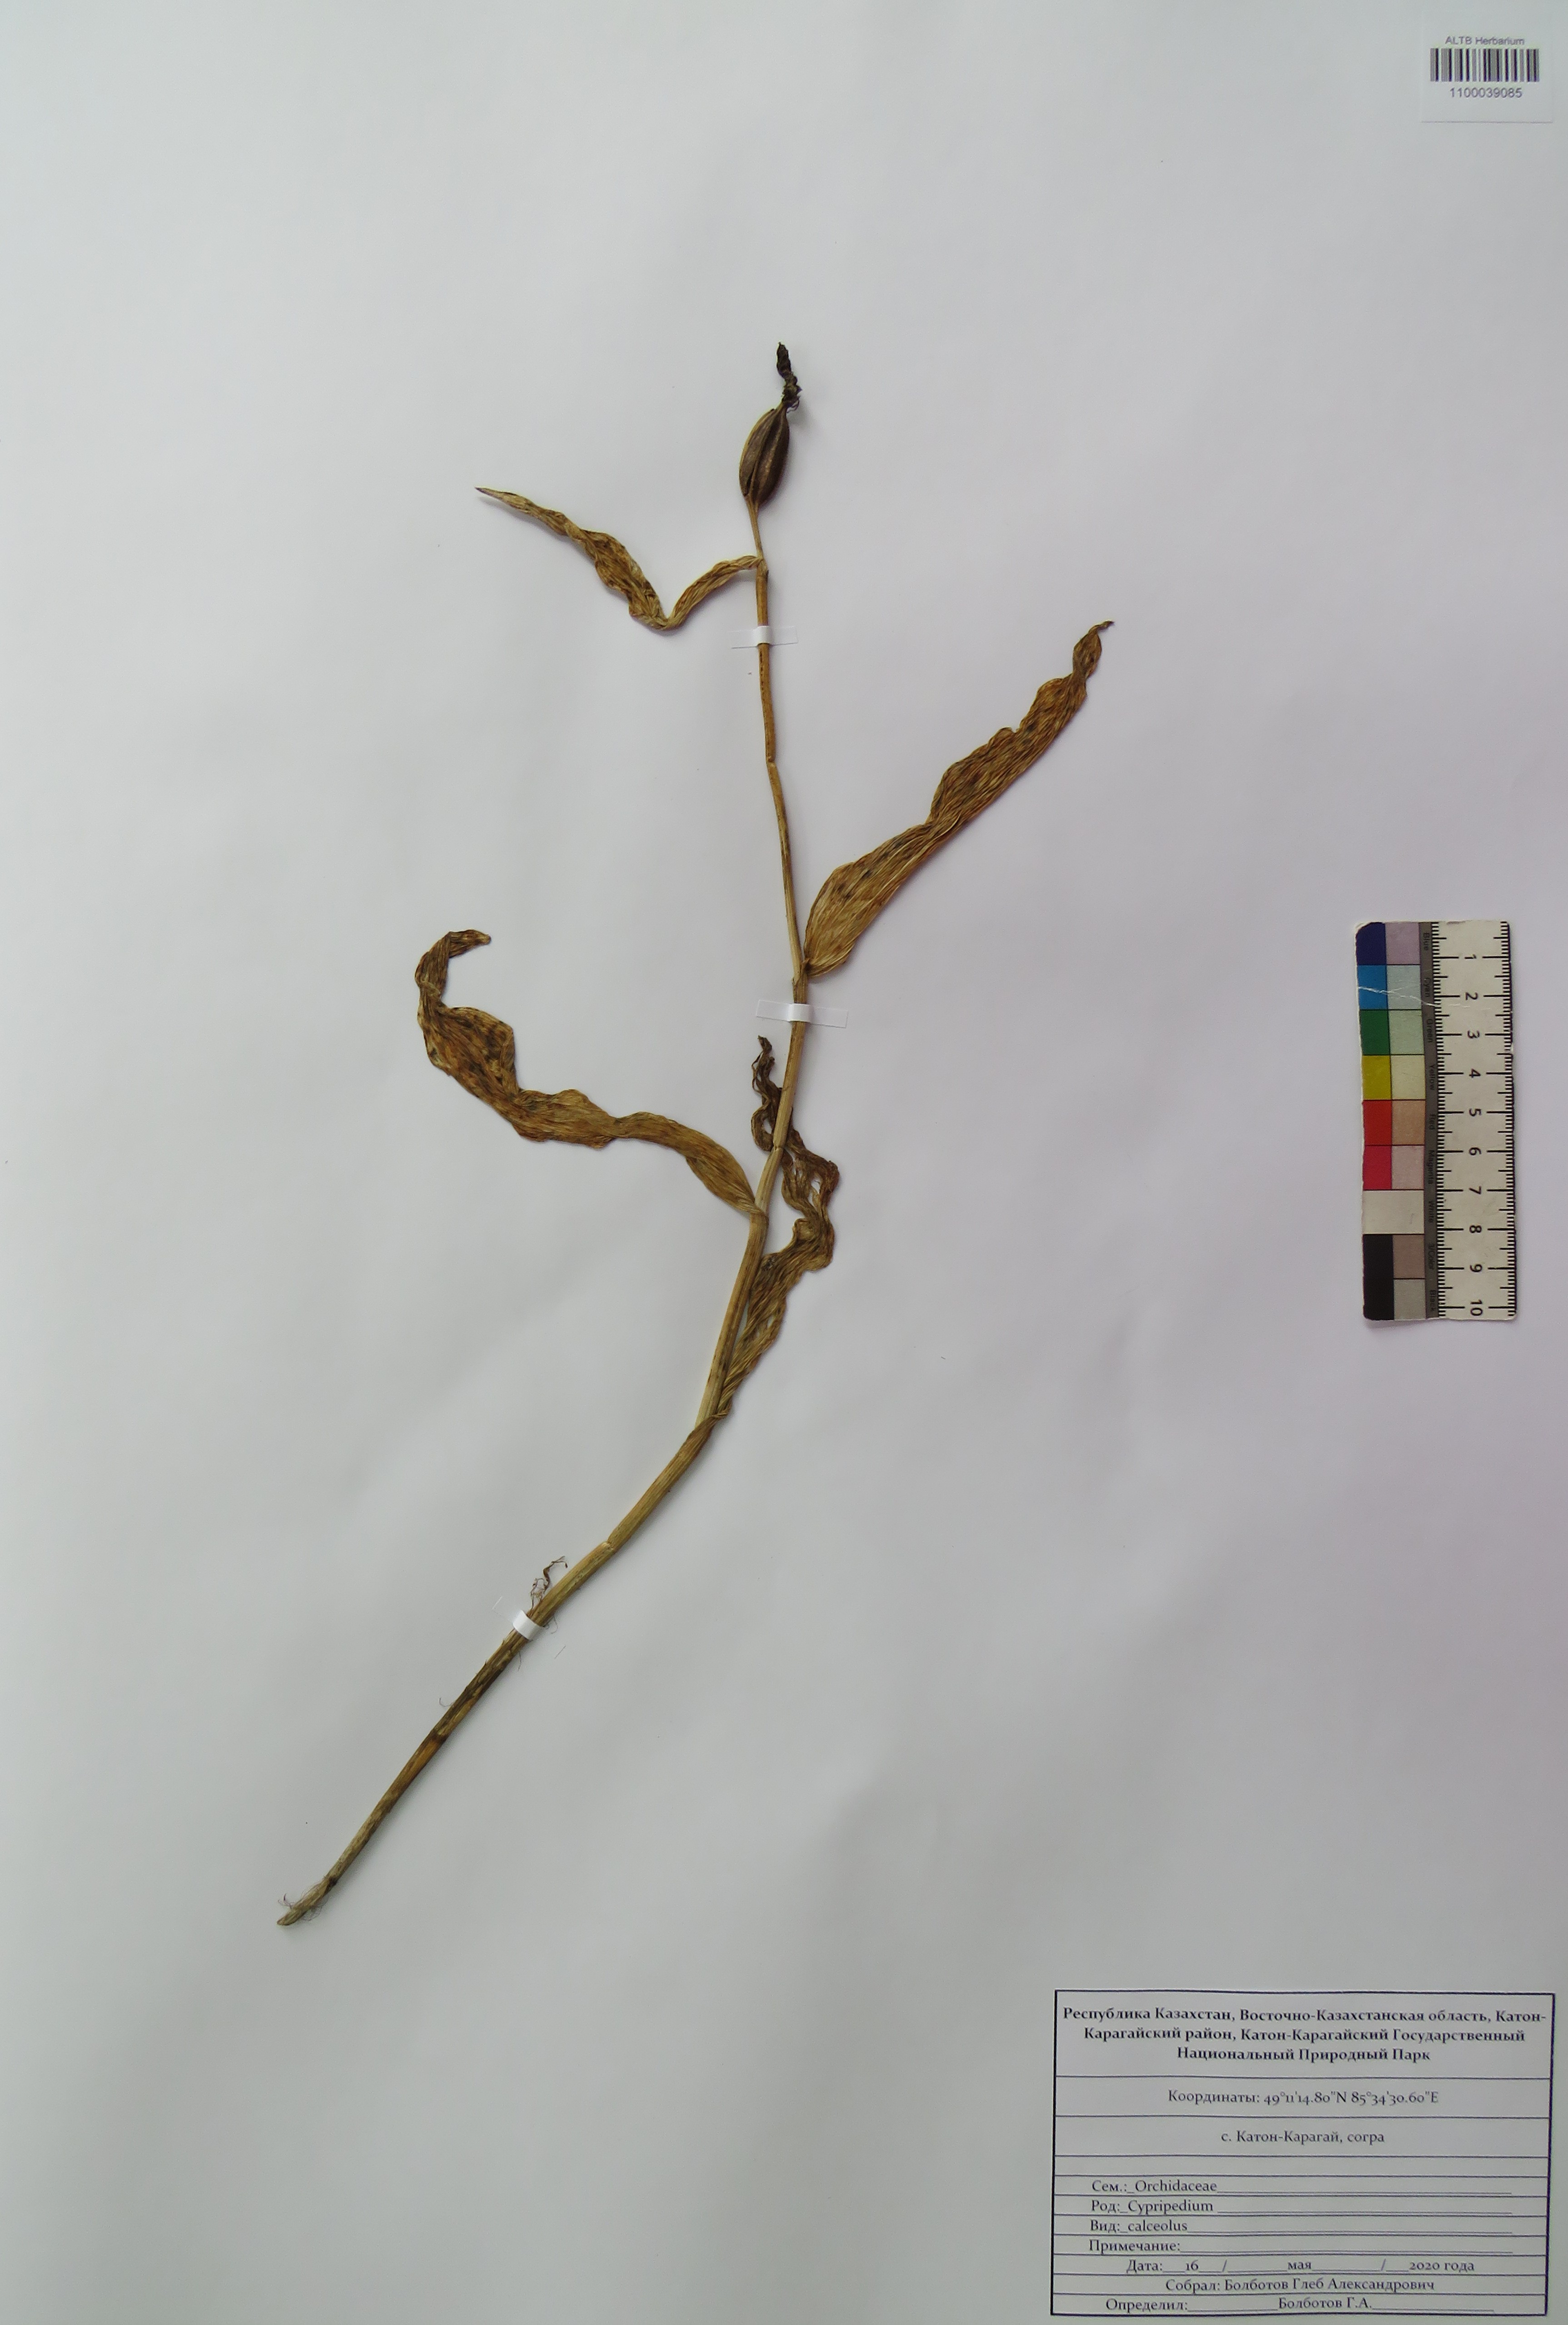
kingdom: Plantae
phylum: Tracheophyta
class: Liliopsida
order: Asparagales
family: Orchidaceae
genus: Cypripedium
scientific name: Cypripedium calceolus
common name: Lady's-slipper
